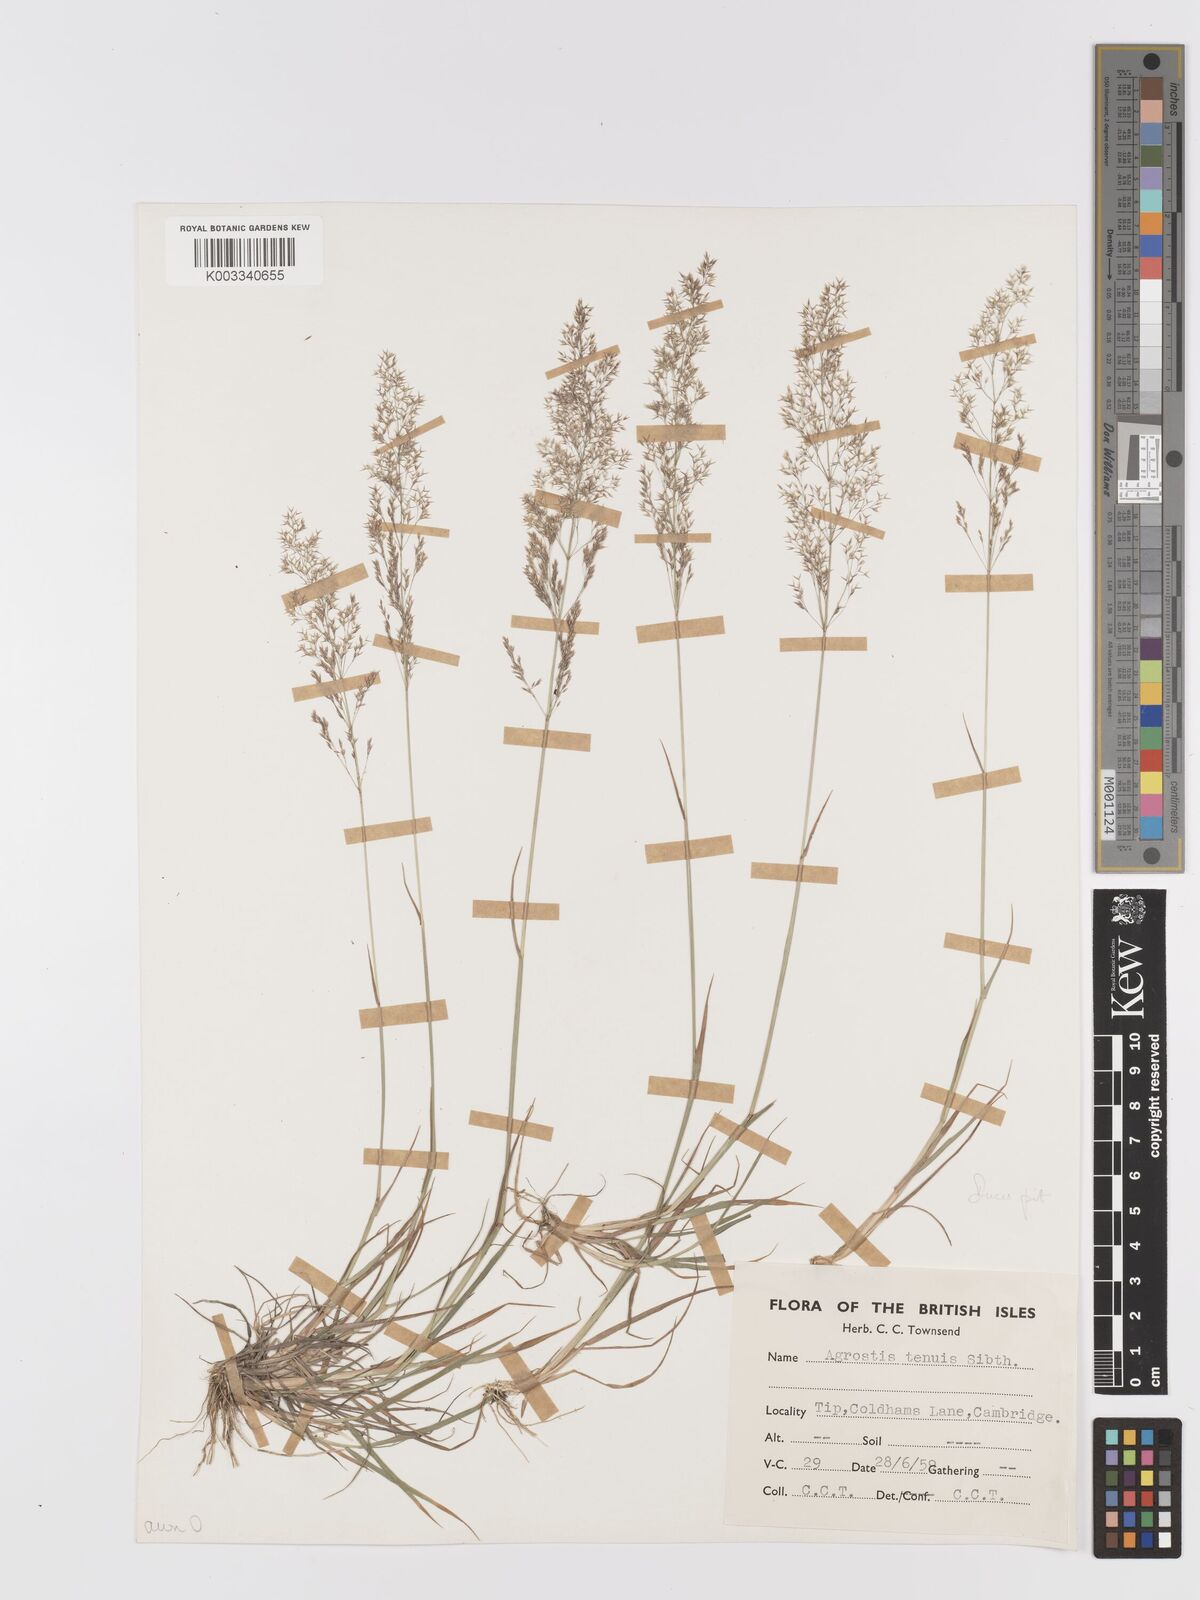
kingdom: Plantae
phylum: Tracheophyta
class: Liliopsida
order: Poales
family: Poaceae
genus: Agrostis
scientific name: Agrostis capillaris
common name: Colonial bentgrass
